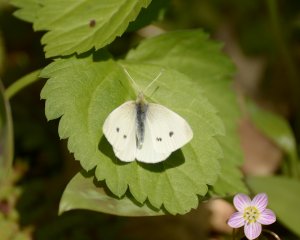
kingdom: Animalia
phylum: Arthropoda
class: Insecta
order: Lepidoptera
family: Pieridae
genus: Pieris
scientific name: Pieris rapae
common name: Cabbage White
